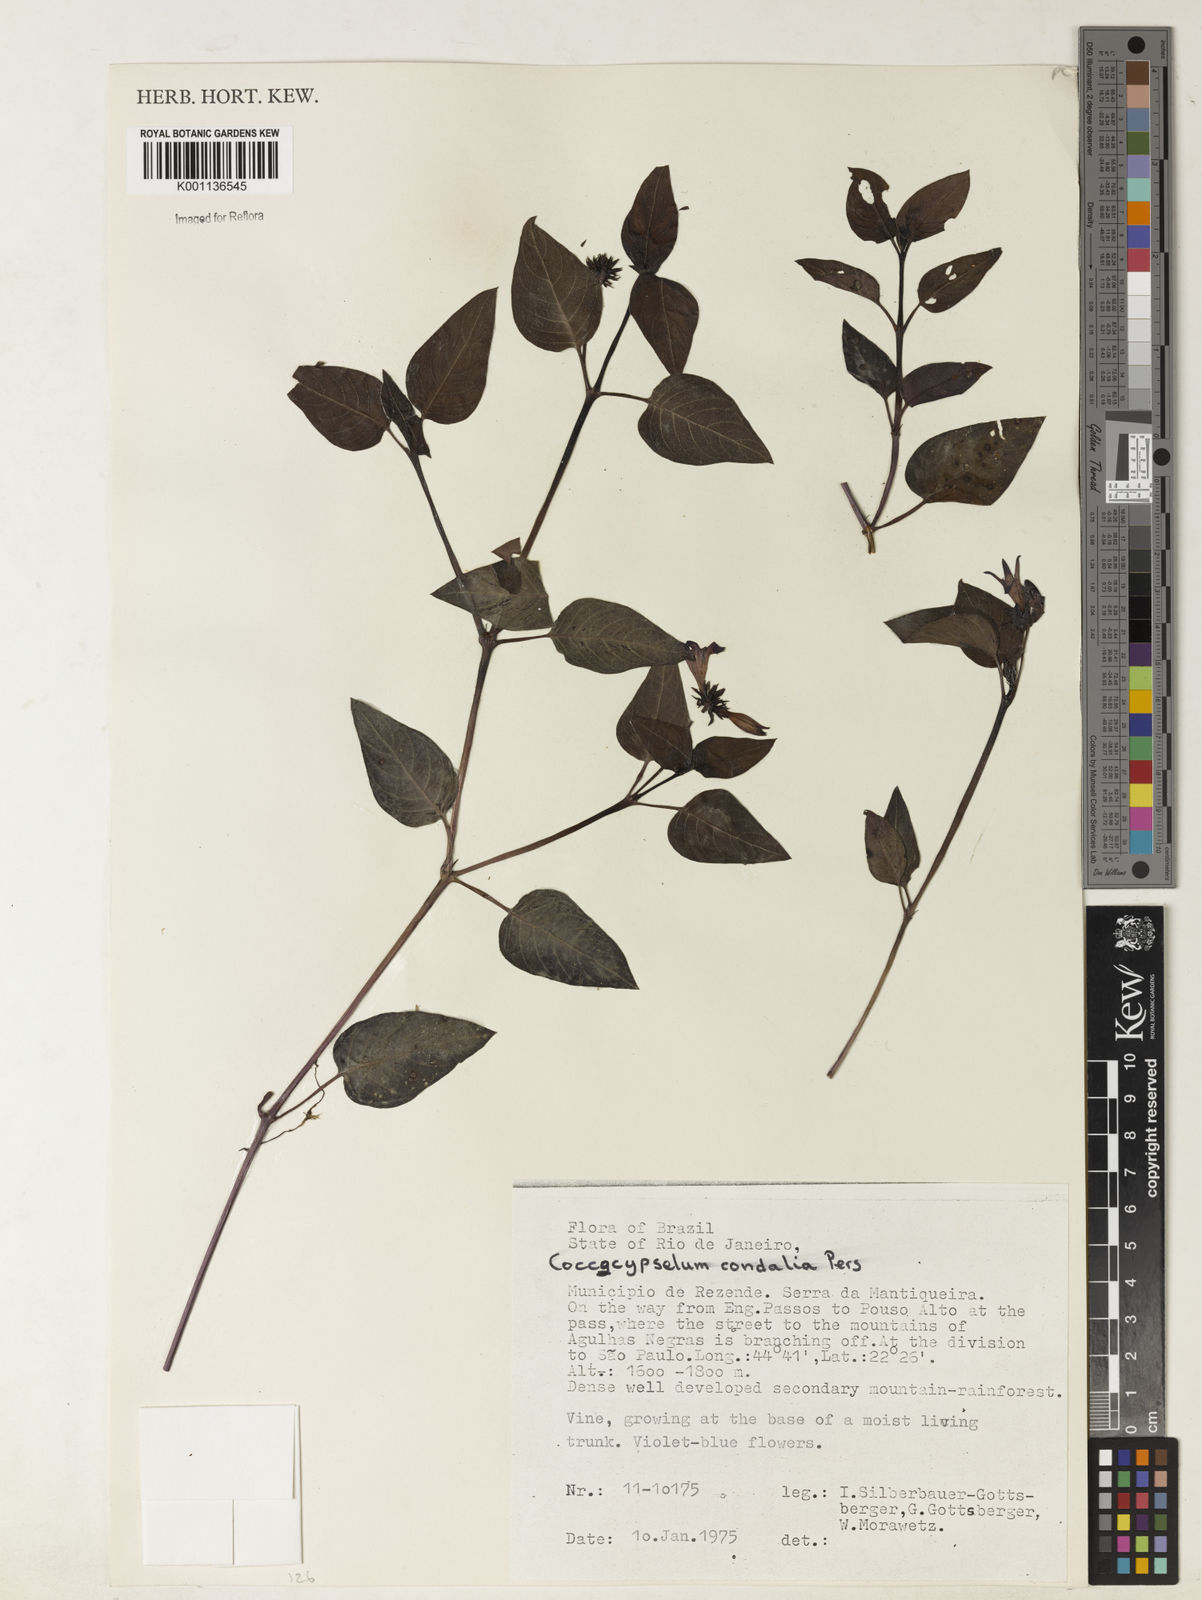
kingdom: Plantae
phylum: Tracheophyta
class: Magnoliopsida
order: Gentianales
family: Rubiaceae
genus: Coccocypselum
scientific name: Coccocypselum condalia
